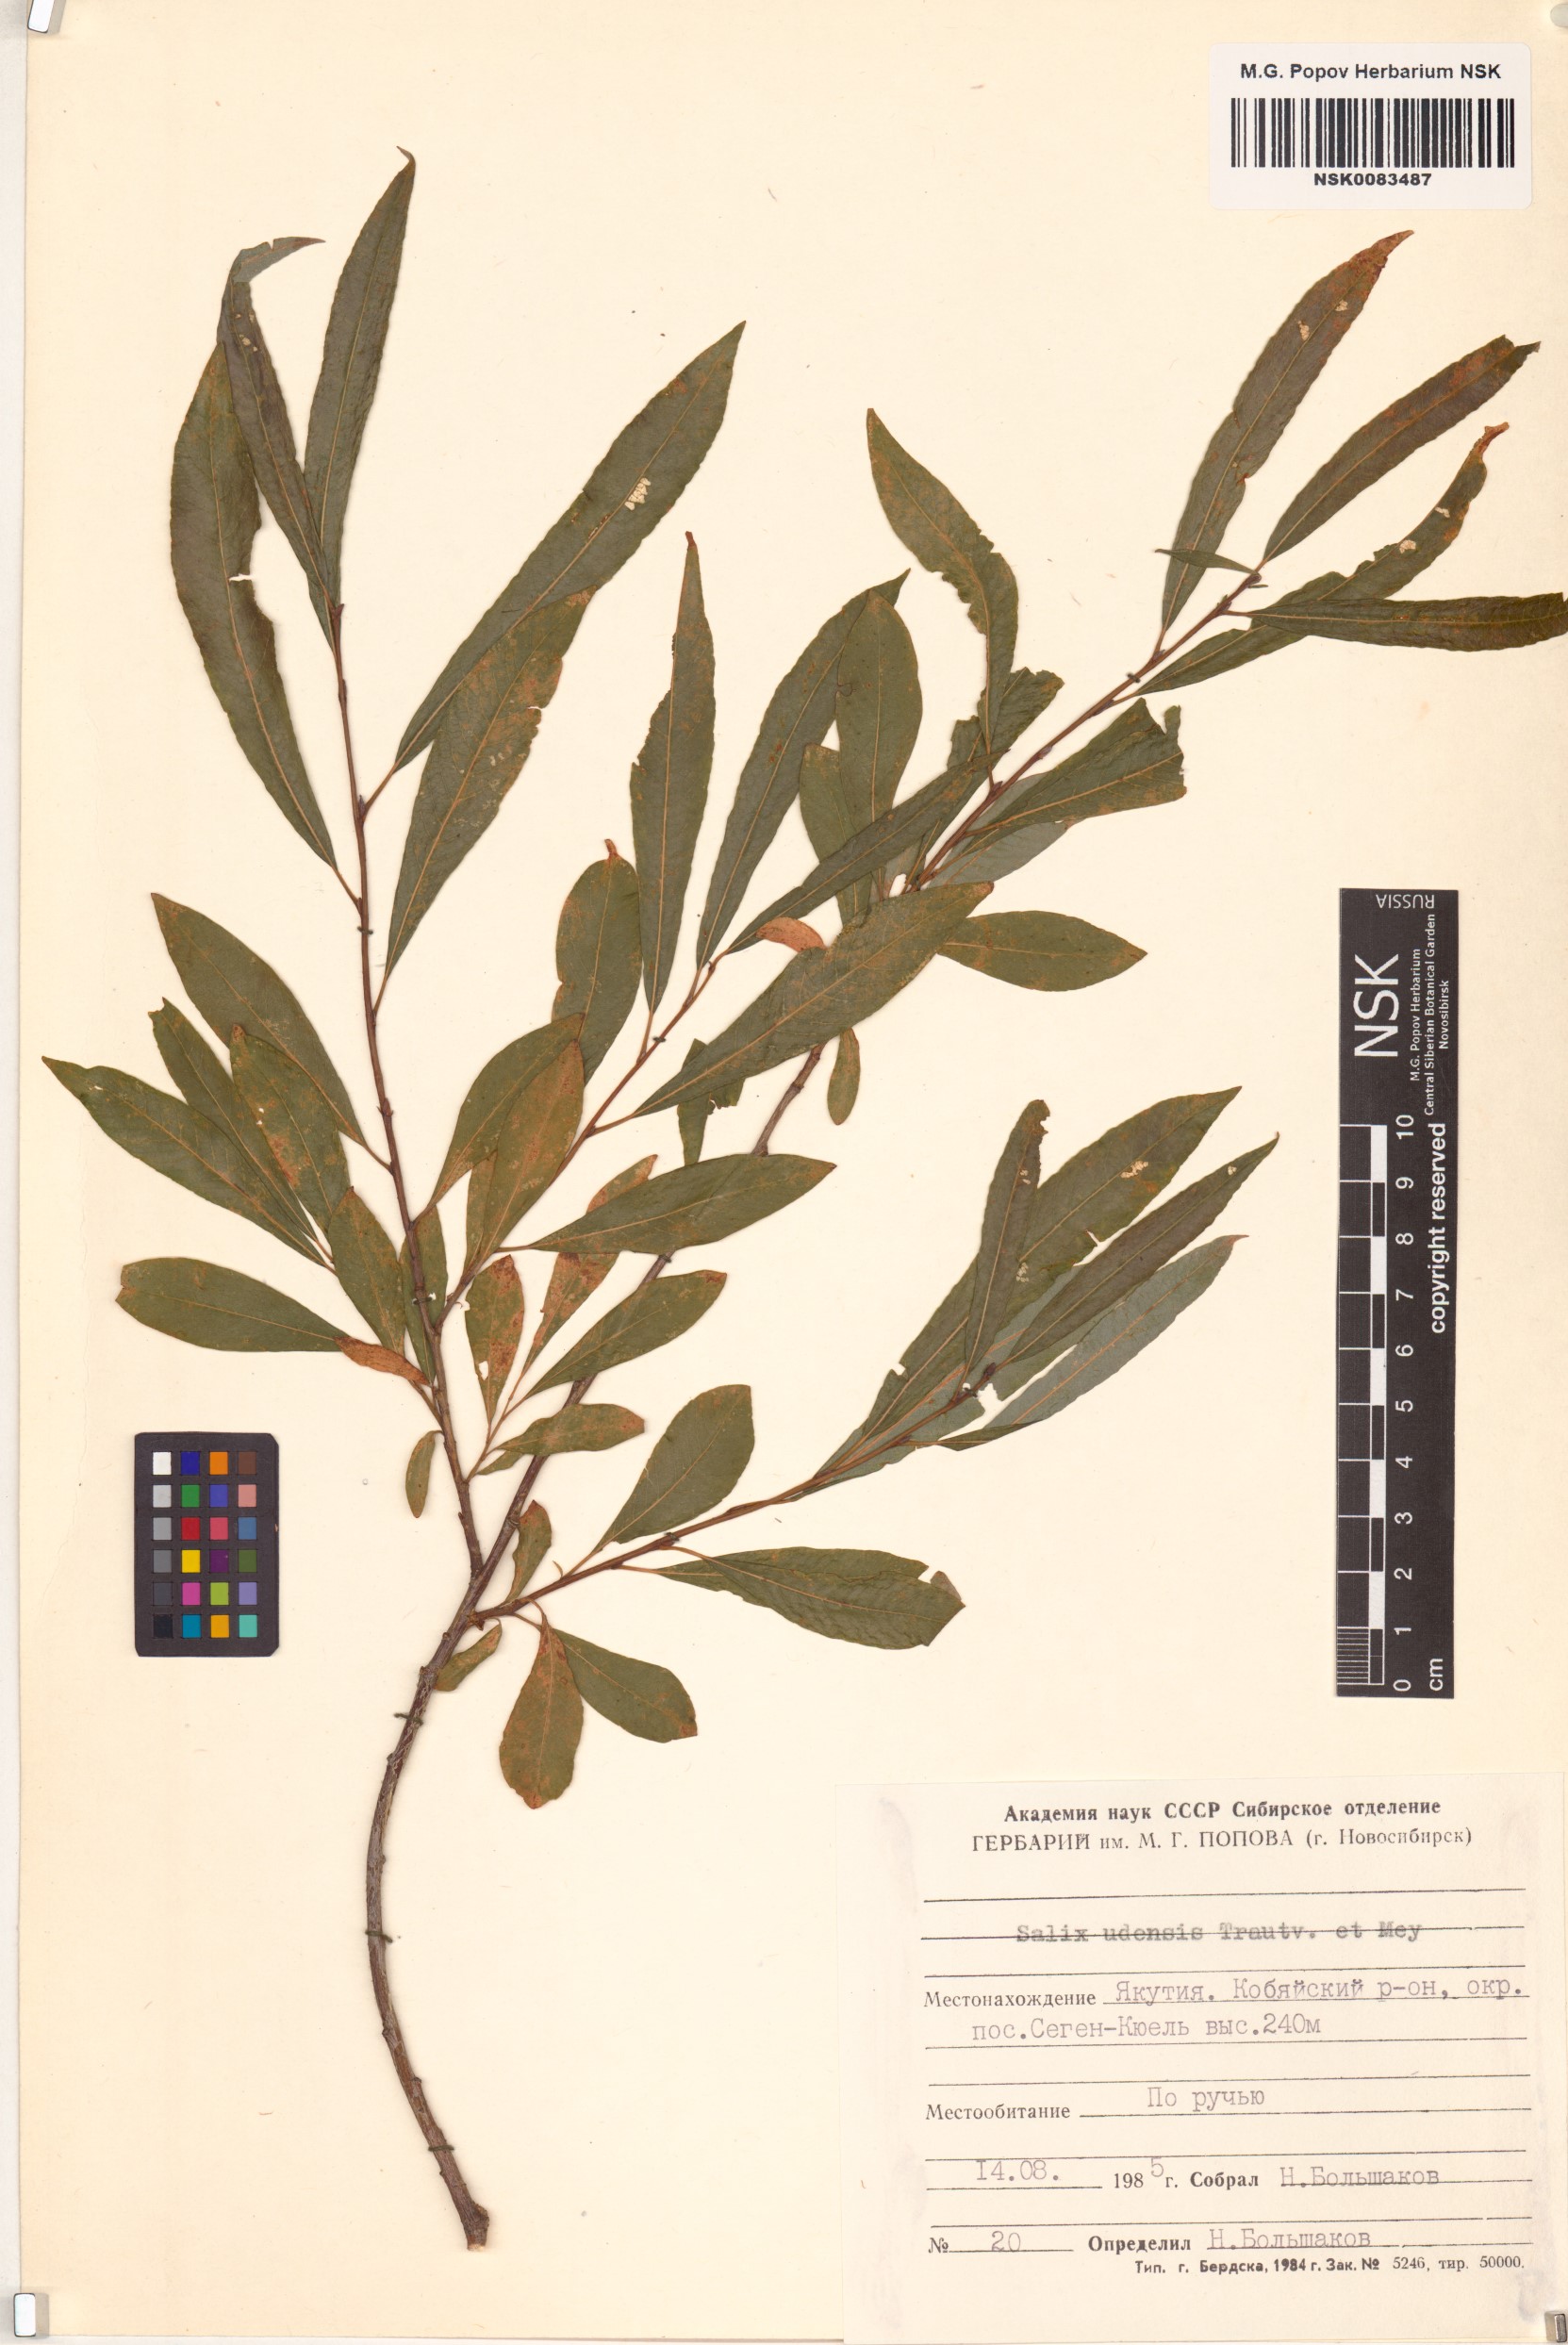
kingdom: Plantae
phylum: Tracheophyta
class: Magnoliopsida
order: Malpighiales
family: Salicaceae
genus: Salix
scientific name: Salix udensis
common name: Sachalin willow
